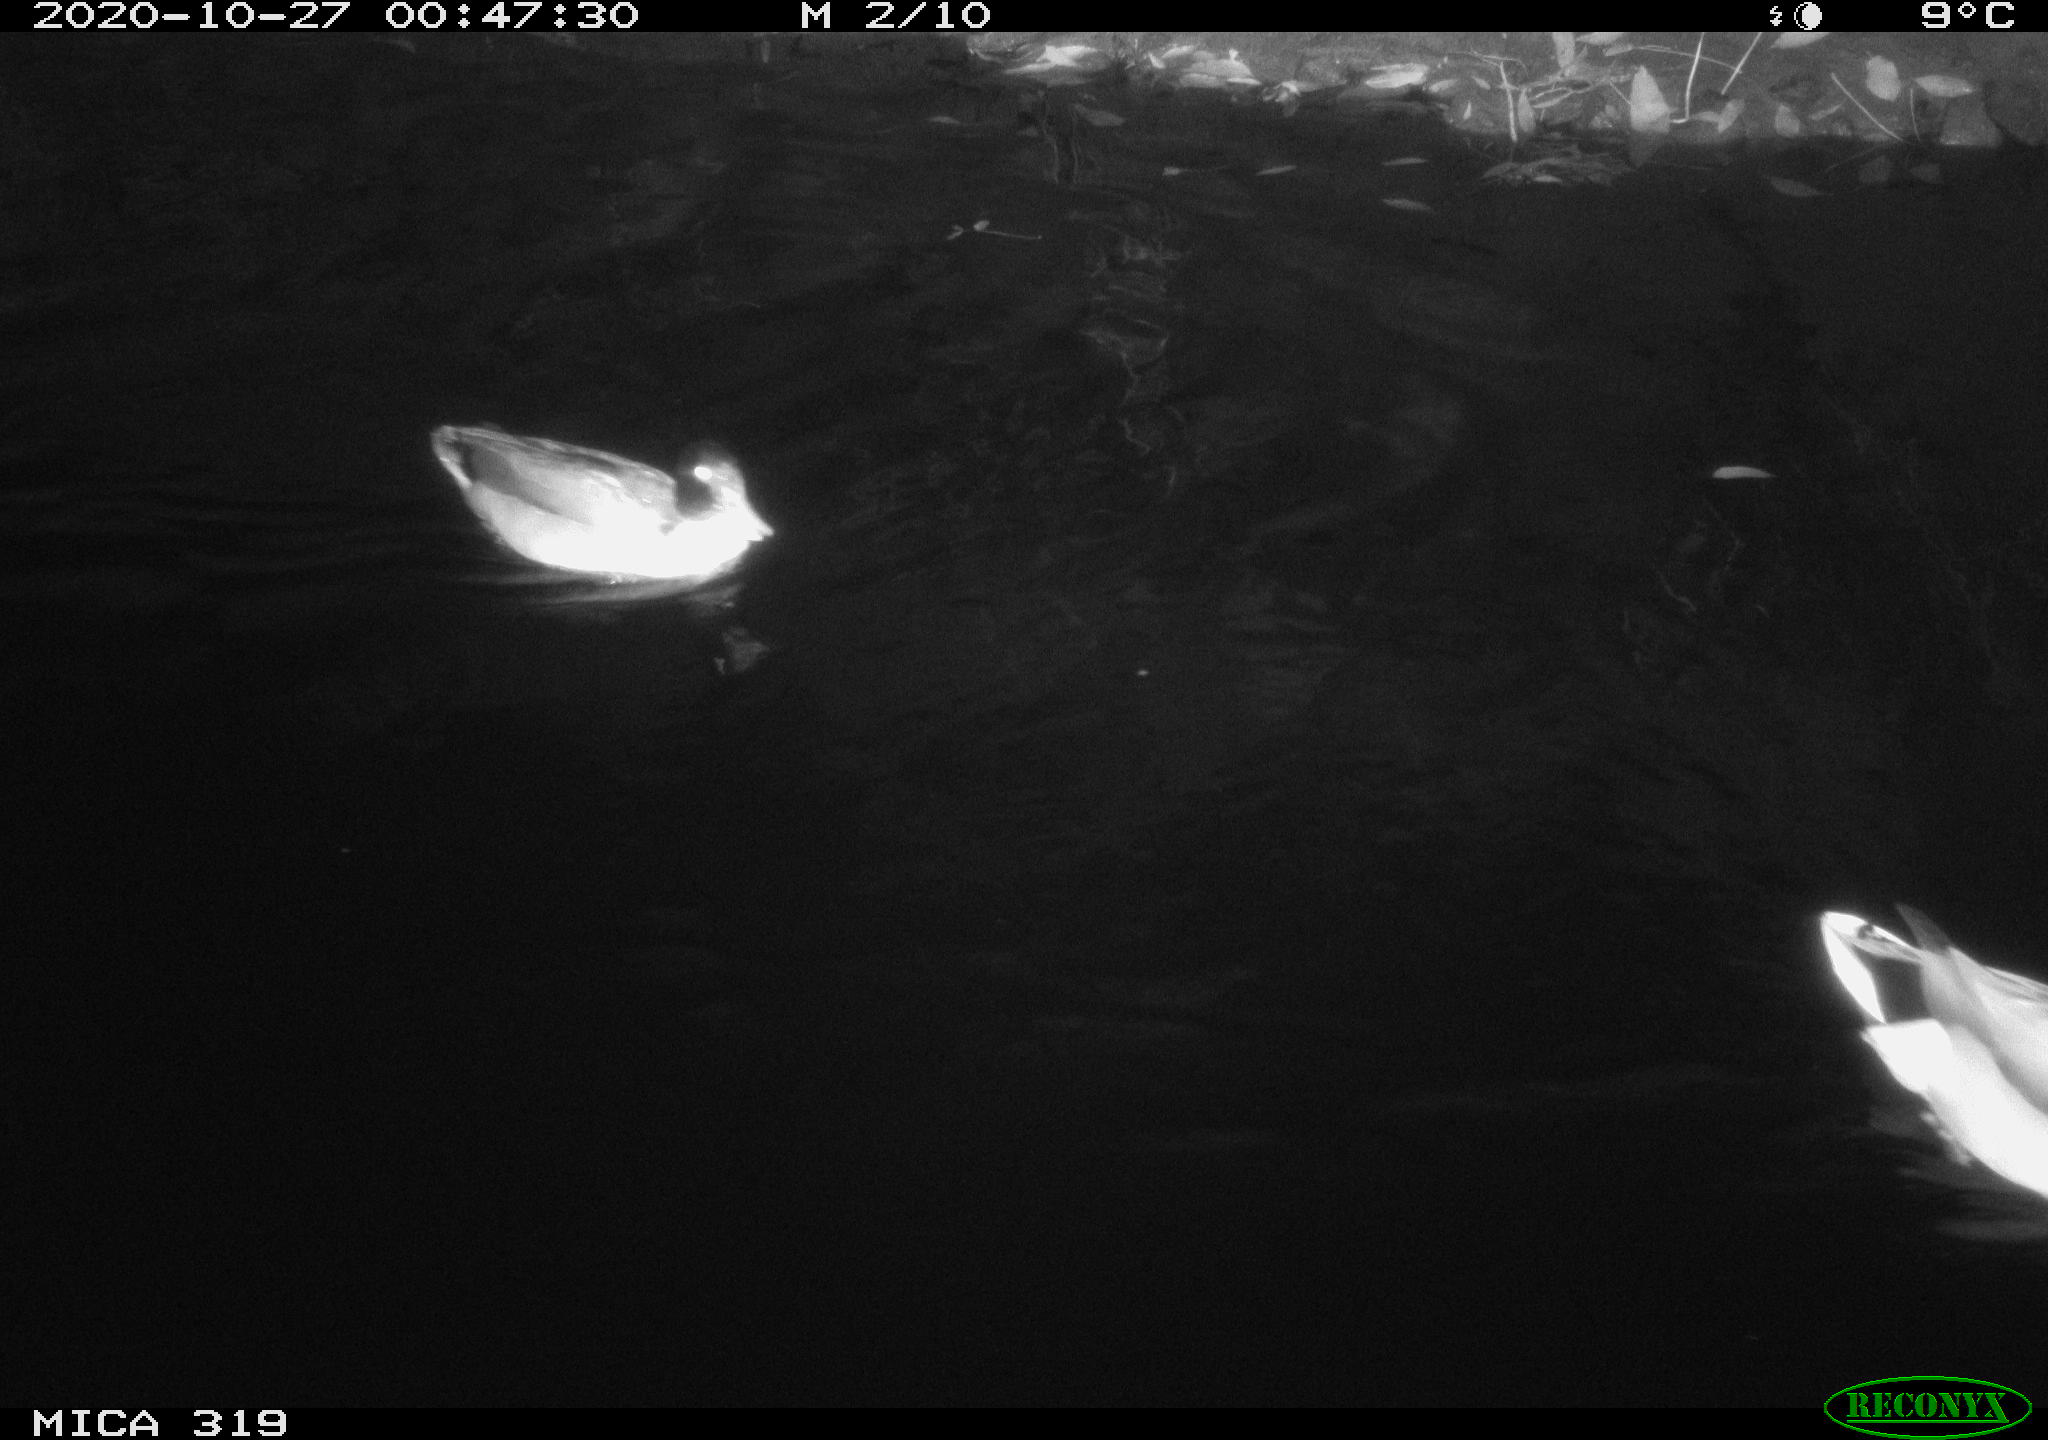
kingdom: Animalia
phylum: Chordata
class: Aves
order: Anseriformes
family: Anatidae
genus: Anas
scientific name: Anas platyrhynchos
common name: Mallard
